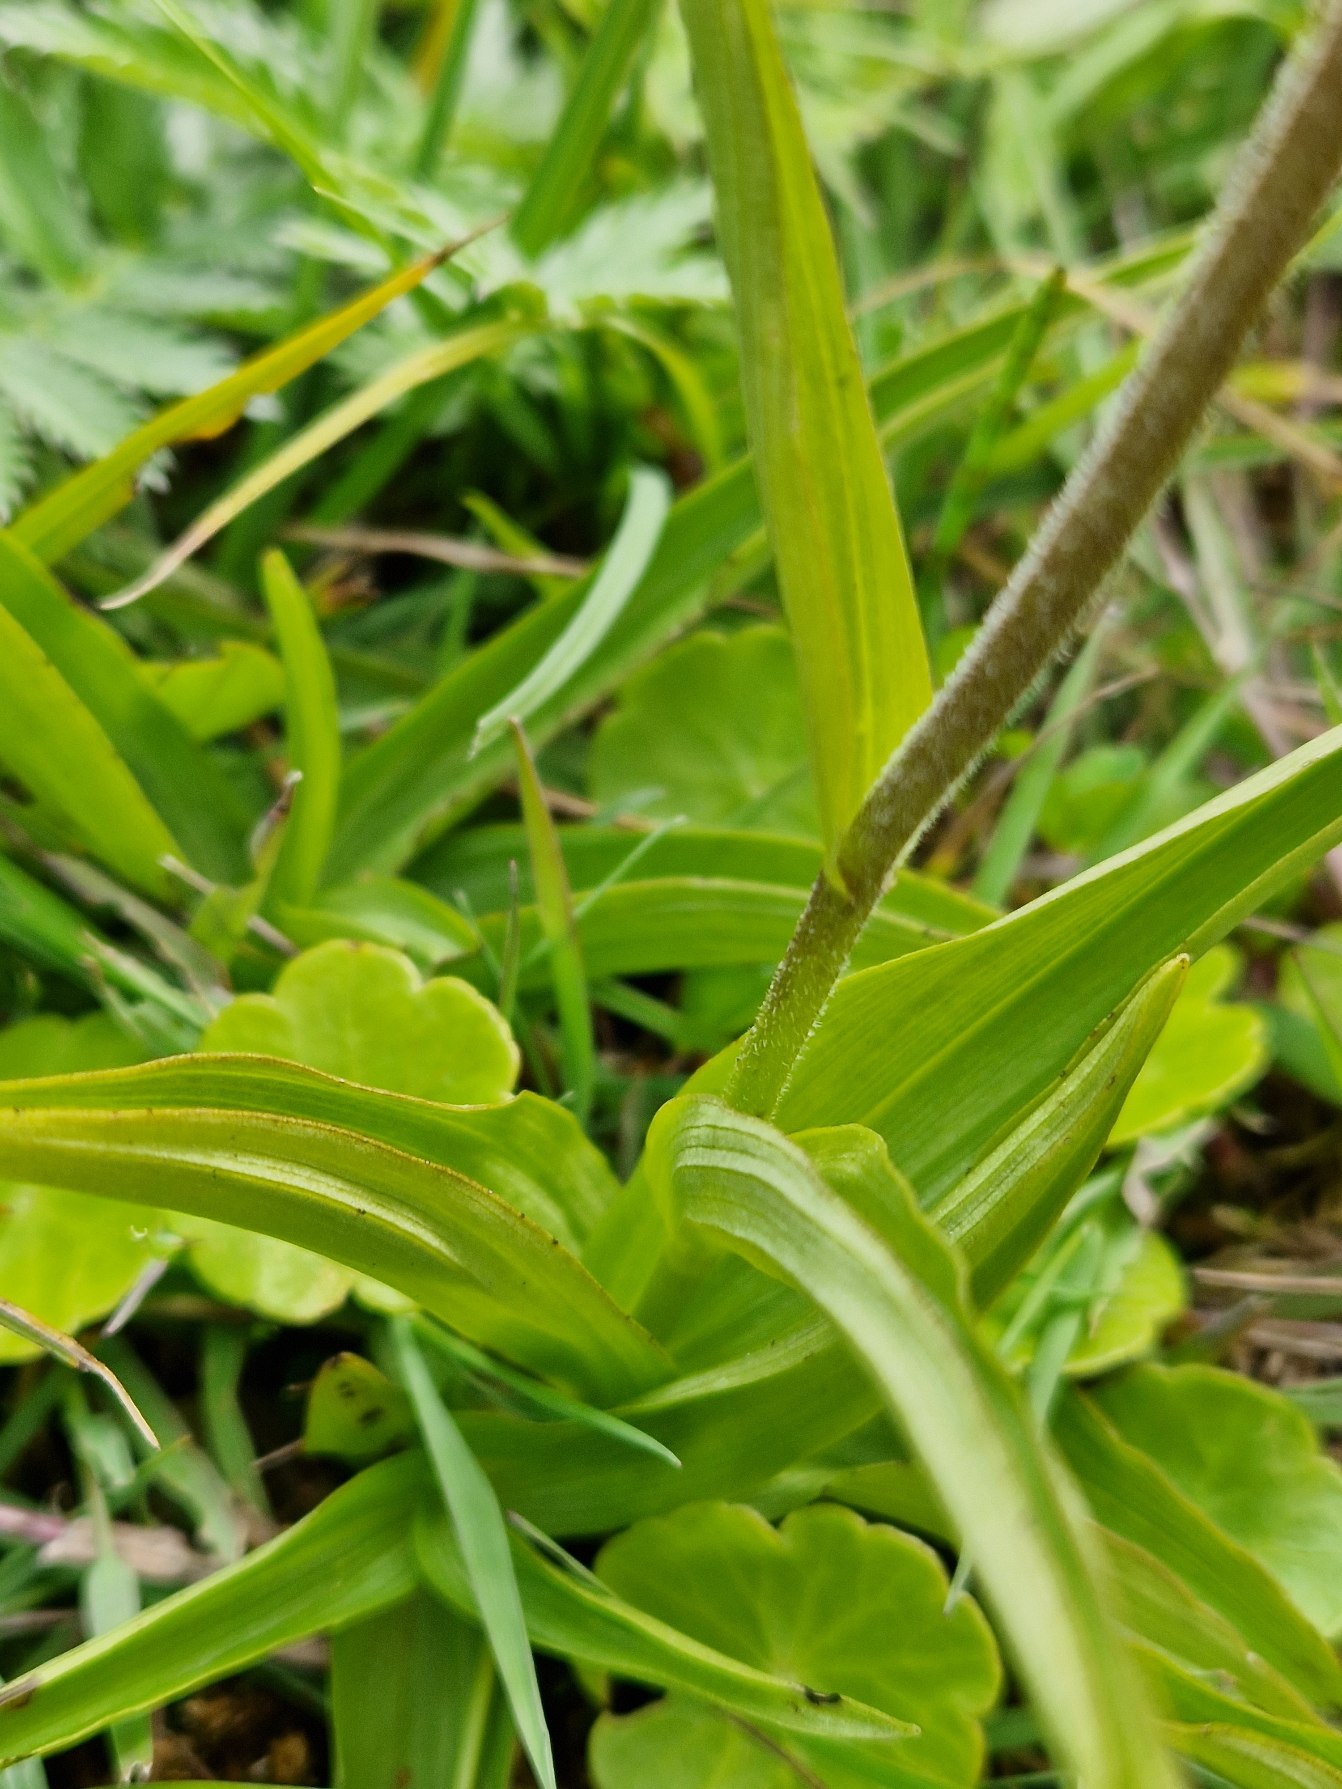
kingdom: Plantae
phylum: Tracheophyta
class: Liliopsida
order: Asparagales
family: Orchidaceae
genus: Epipactis
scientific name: Epipactis palustris
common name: Sump-hullæbe
